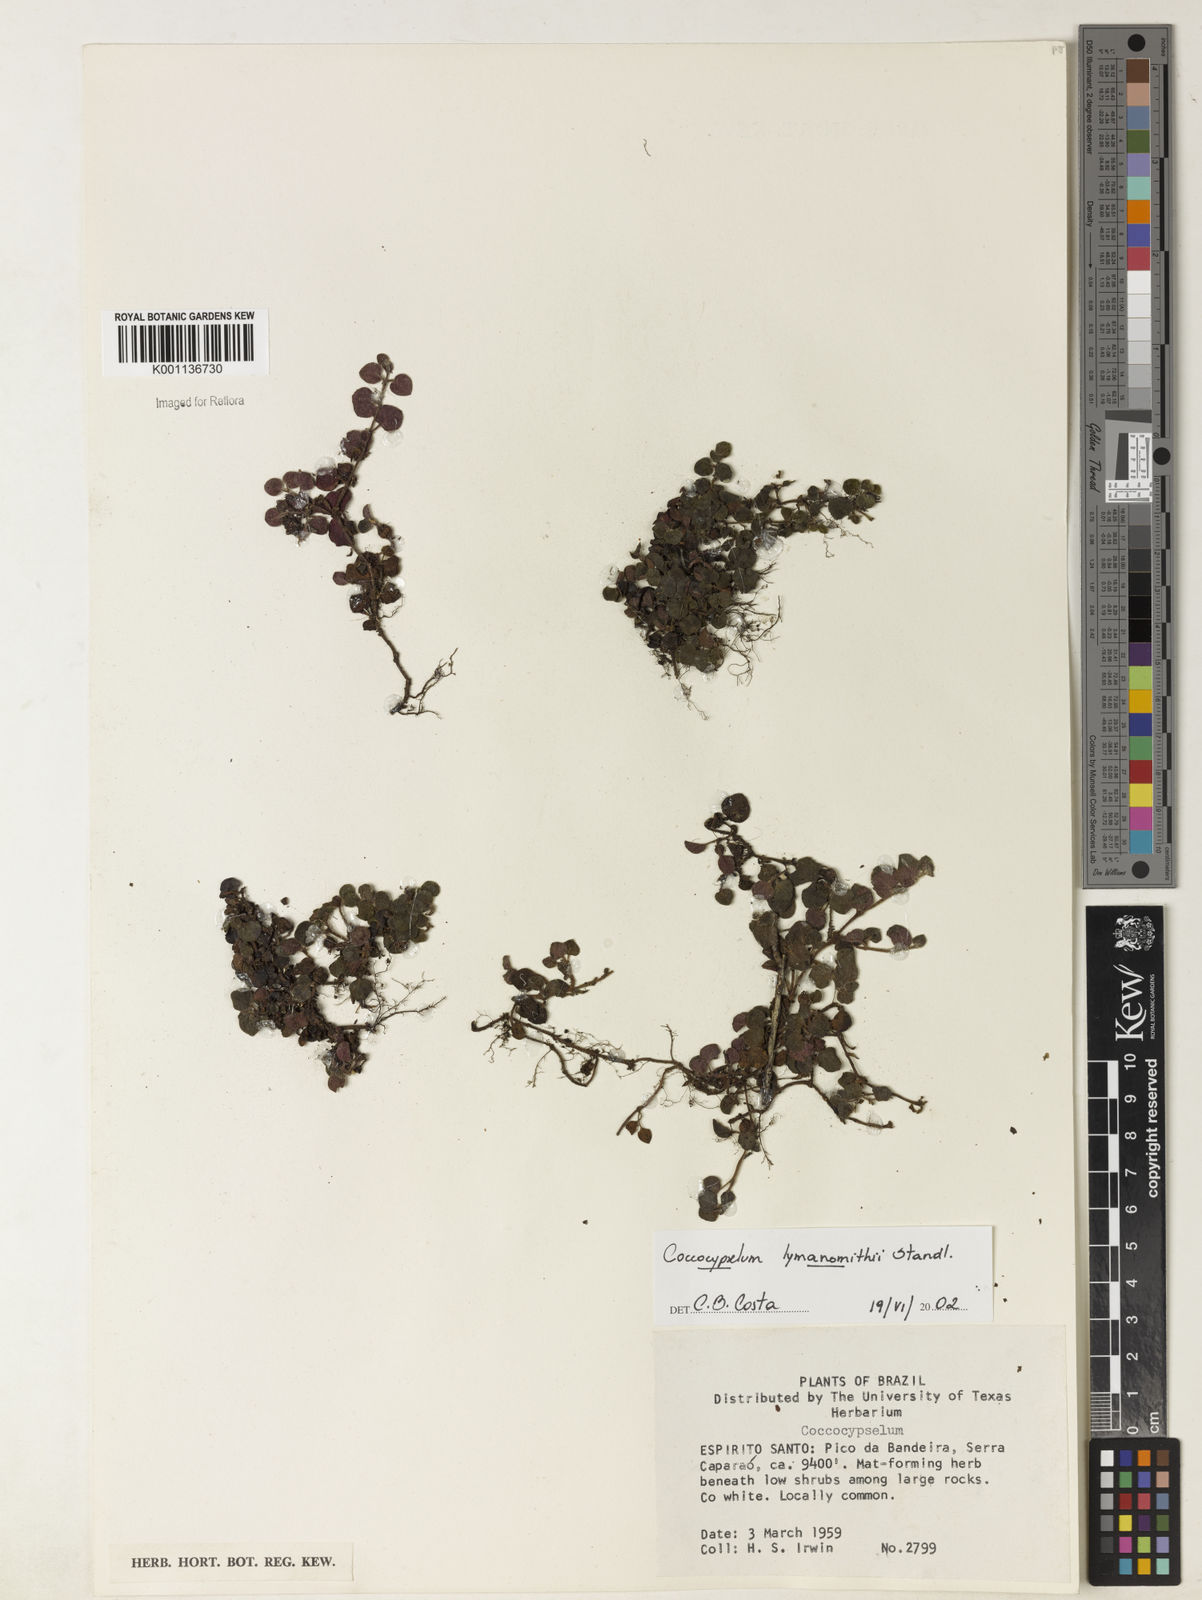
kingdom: Plantae
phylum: Tracheophyta
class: Magnoliopsida
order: Gentianales
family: Rubiaceae
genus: Coccocypselum
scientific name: Coccocypselum lymansmithii
